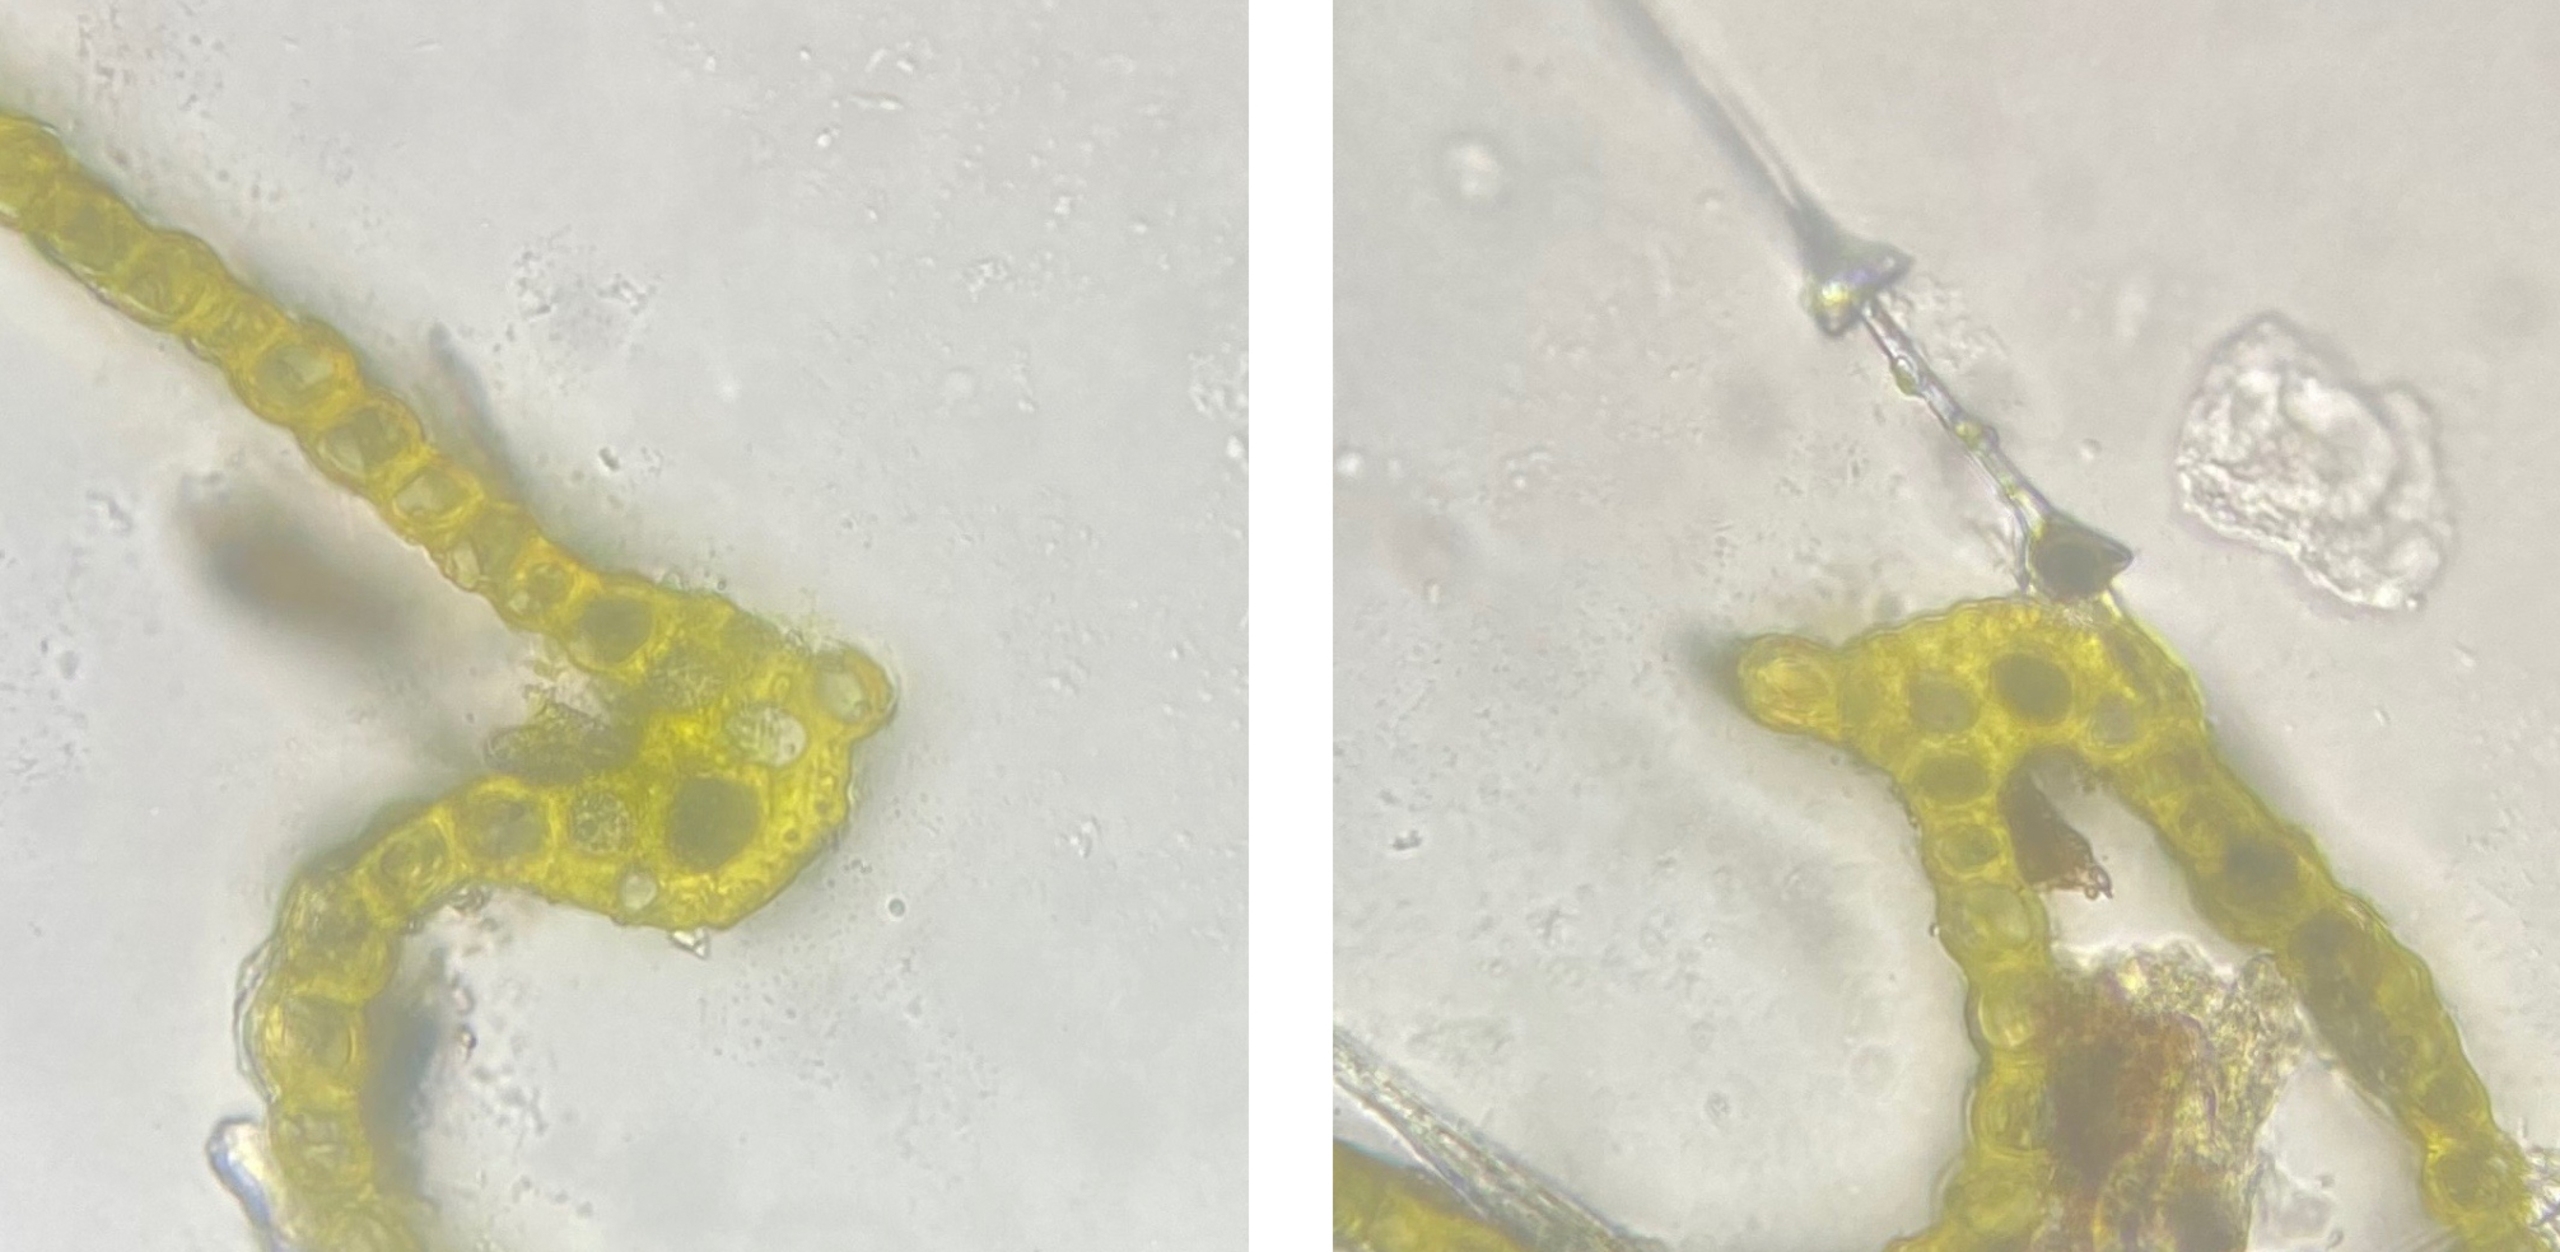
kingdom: Plantae
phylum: Bryophyta
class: Bryopsida
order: Dicranales
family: Dicranaceae
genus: Dicranum
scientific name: Dicranum polysetum
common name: Bølgebladet kløvtand
